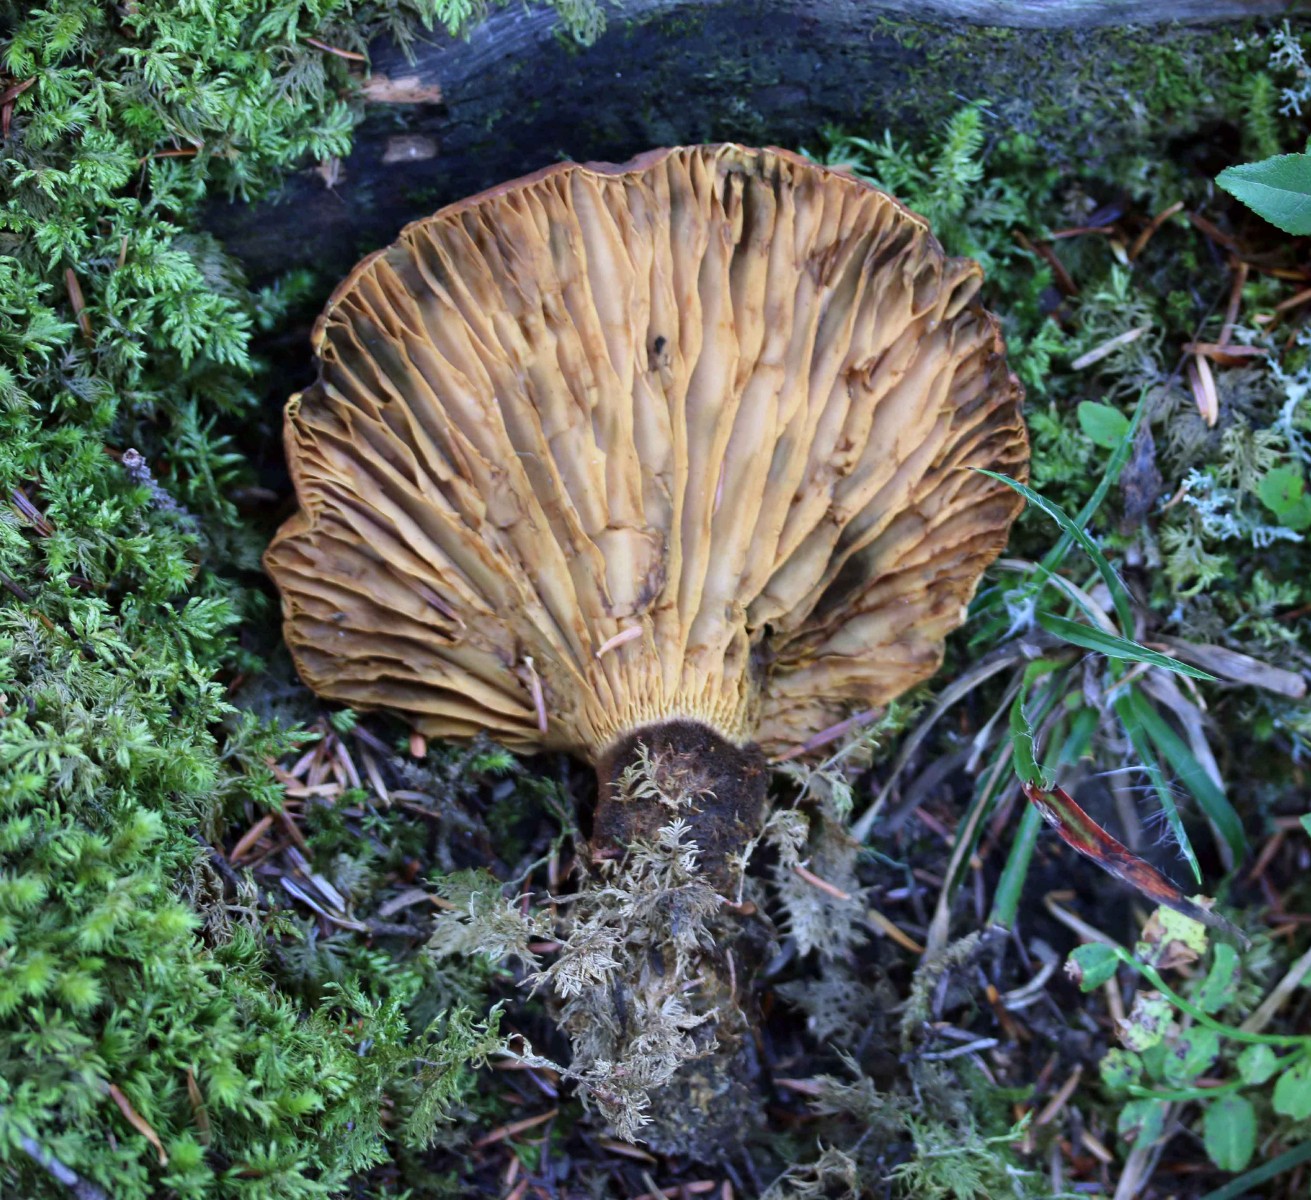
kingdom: Fungi
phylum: Basidiomycota
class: Agaricomycetes
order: Boletales
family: Tapinellaceae
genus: Tapinella
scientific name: Tapinella atrotomentosa
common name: sortfiltet viftesvamp
